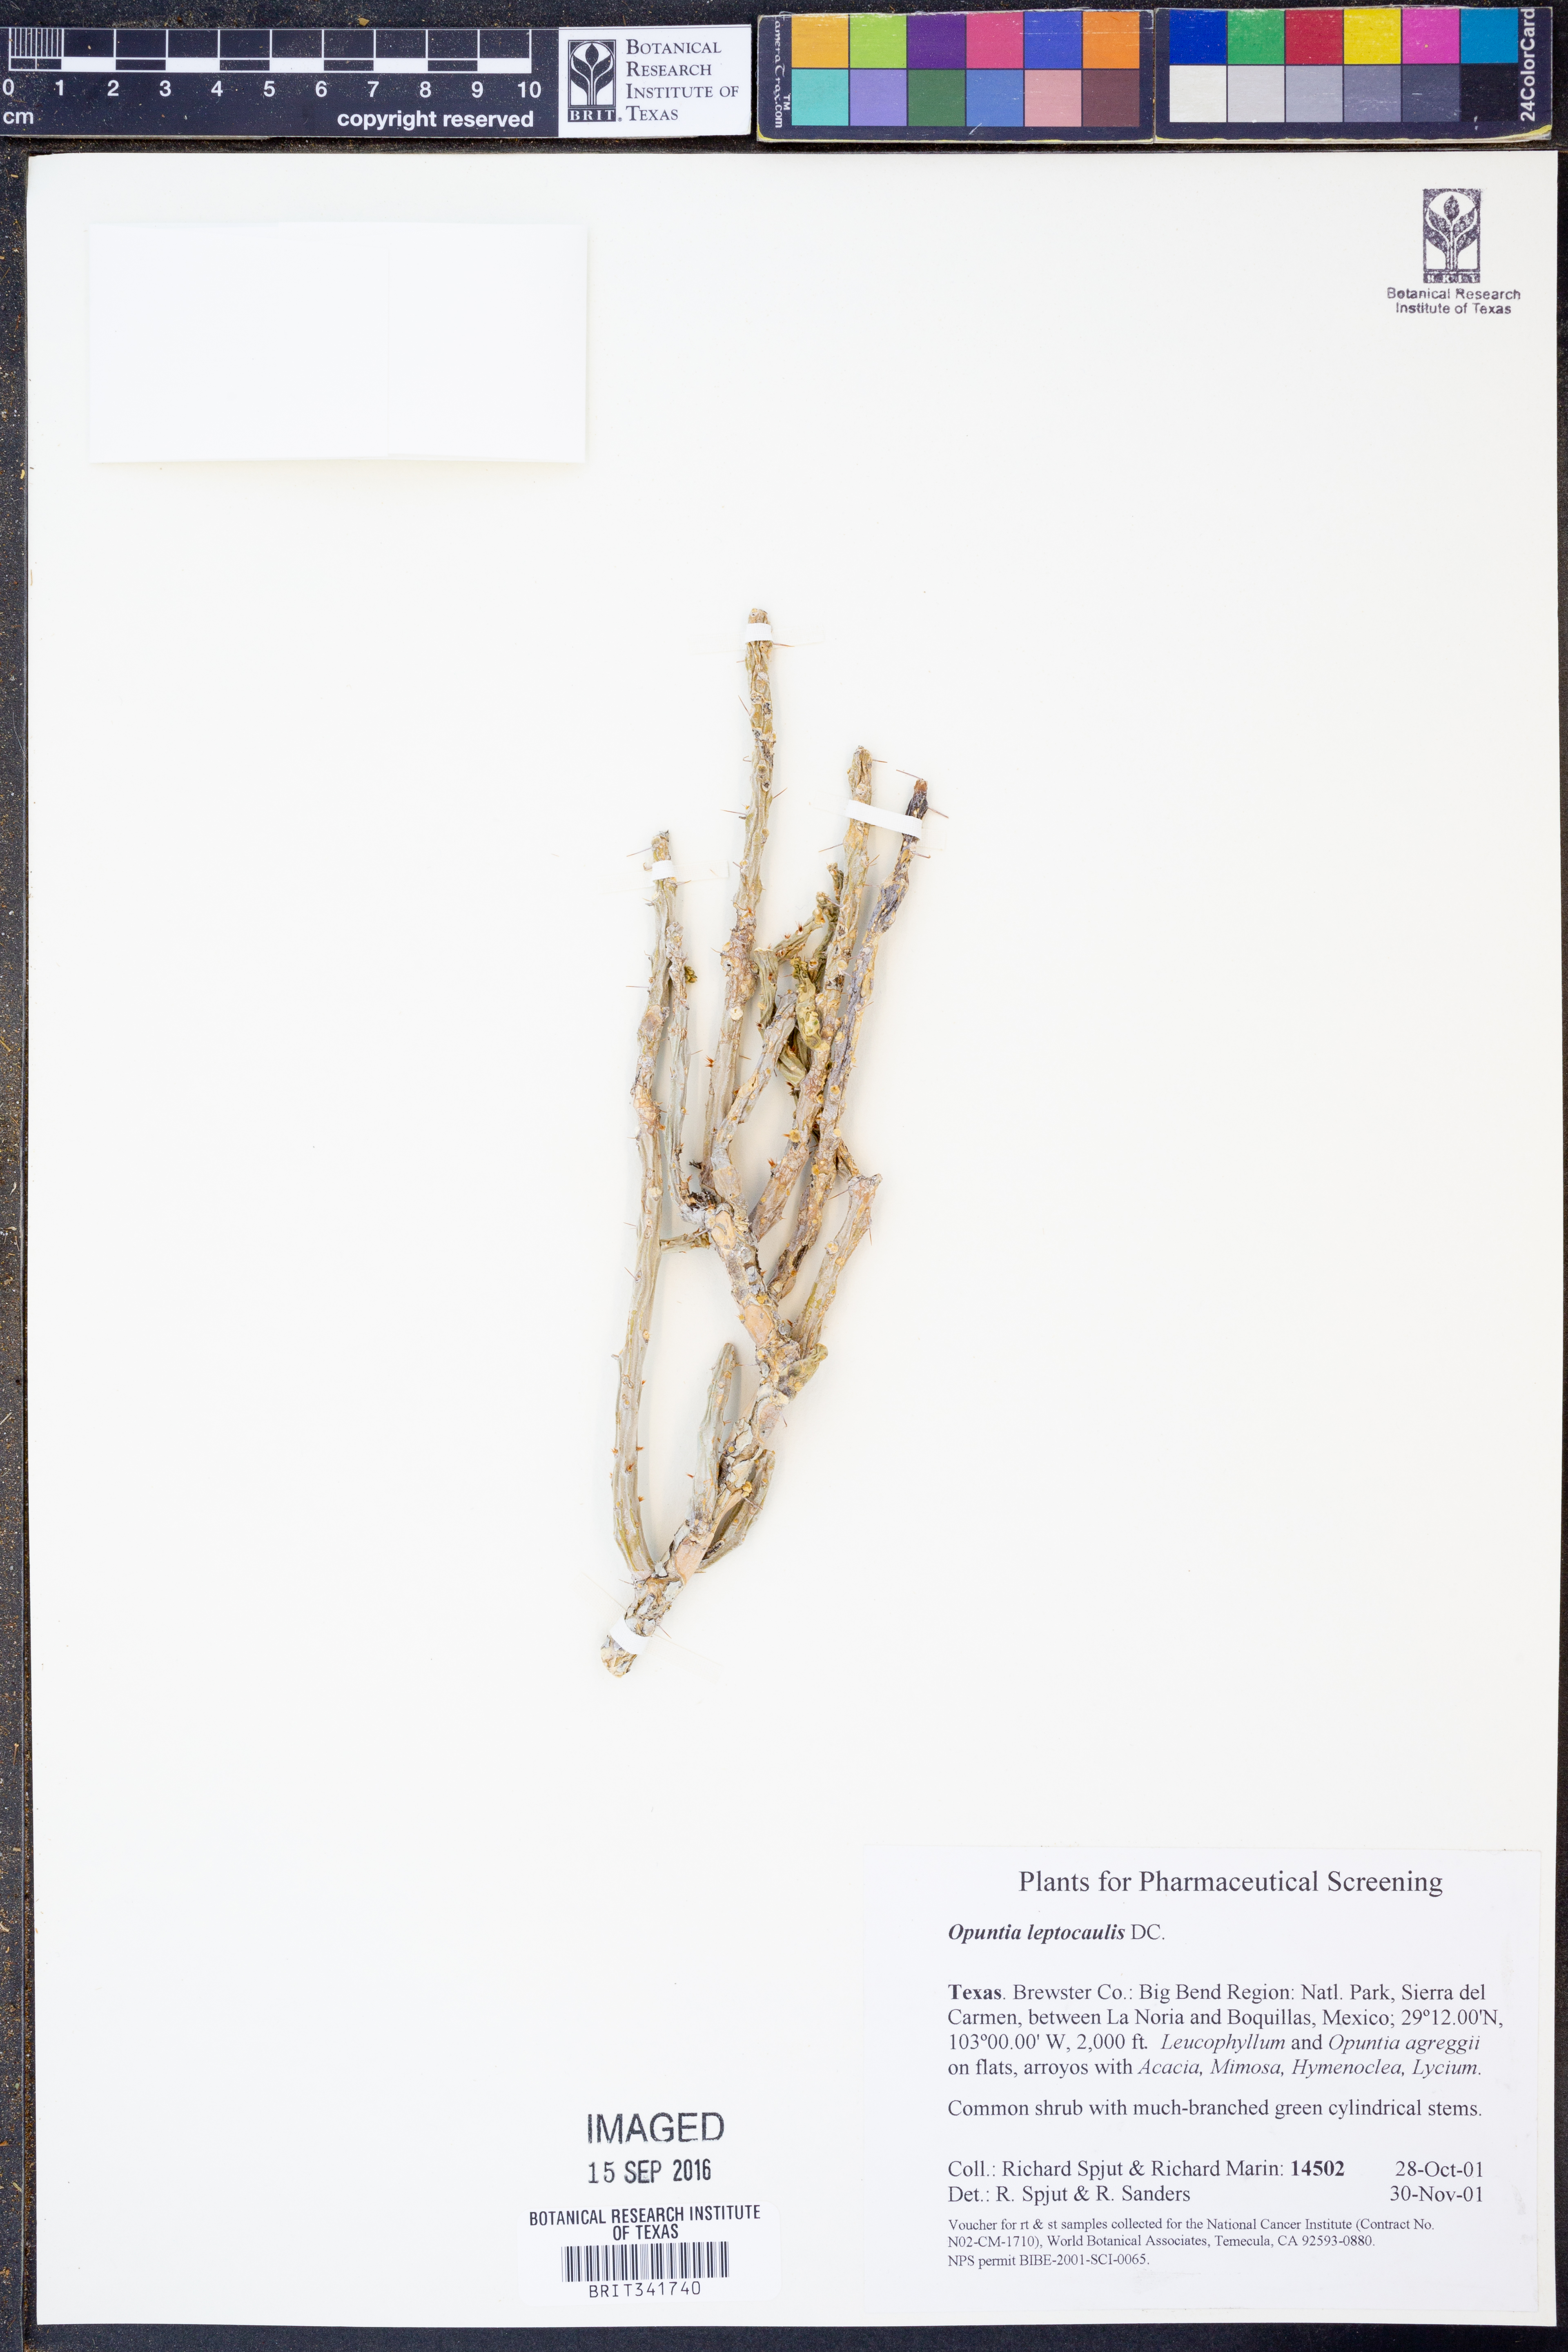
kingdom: Plantae
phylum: Tracheophyta
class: Magnoliopsida
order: Caryophyllales
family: Cactaceae
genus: Cylindropuntia
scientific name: Cylindropuntia leptocaulis
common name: Christmas cactus
